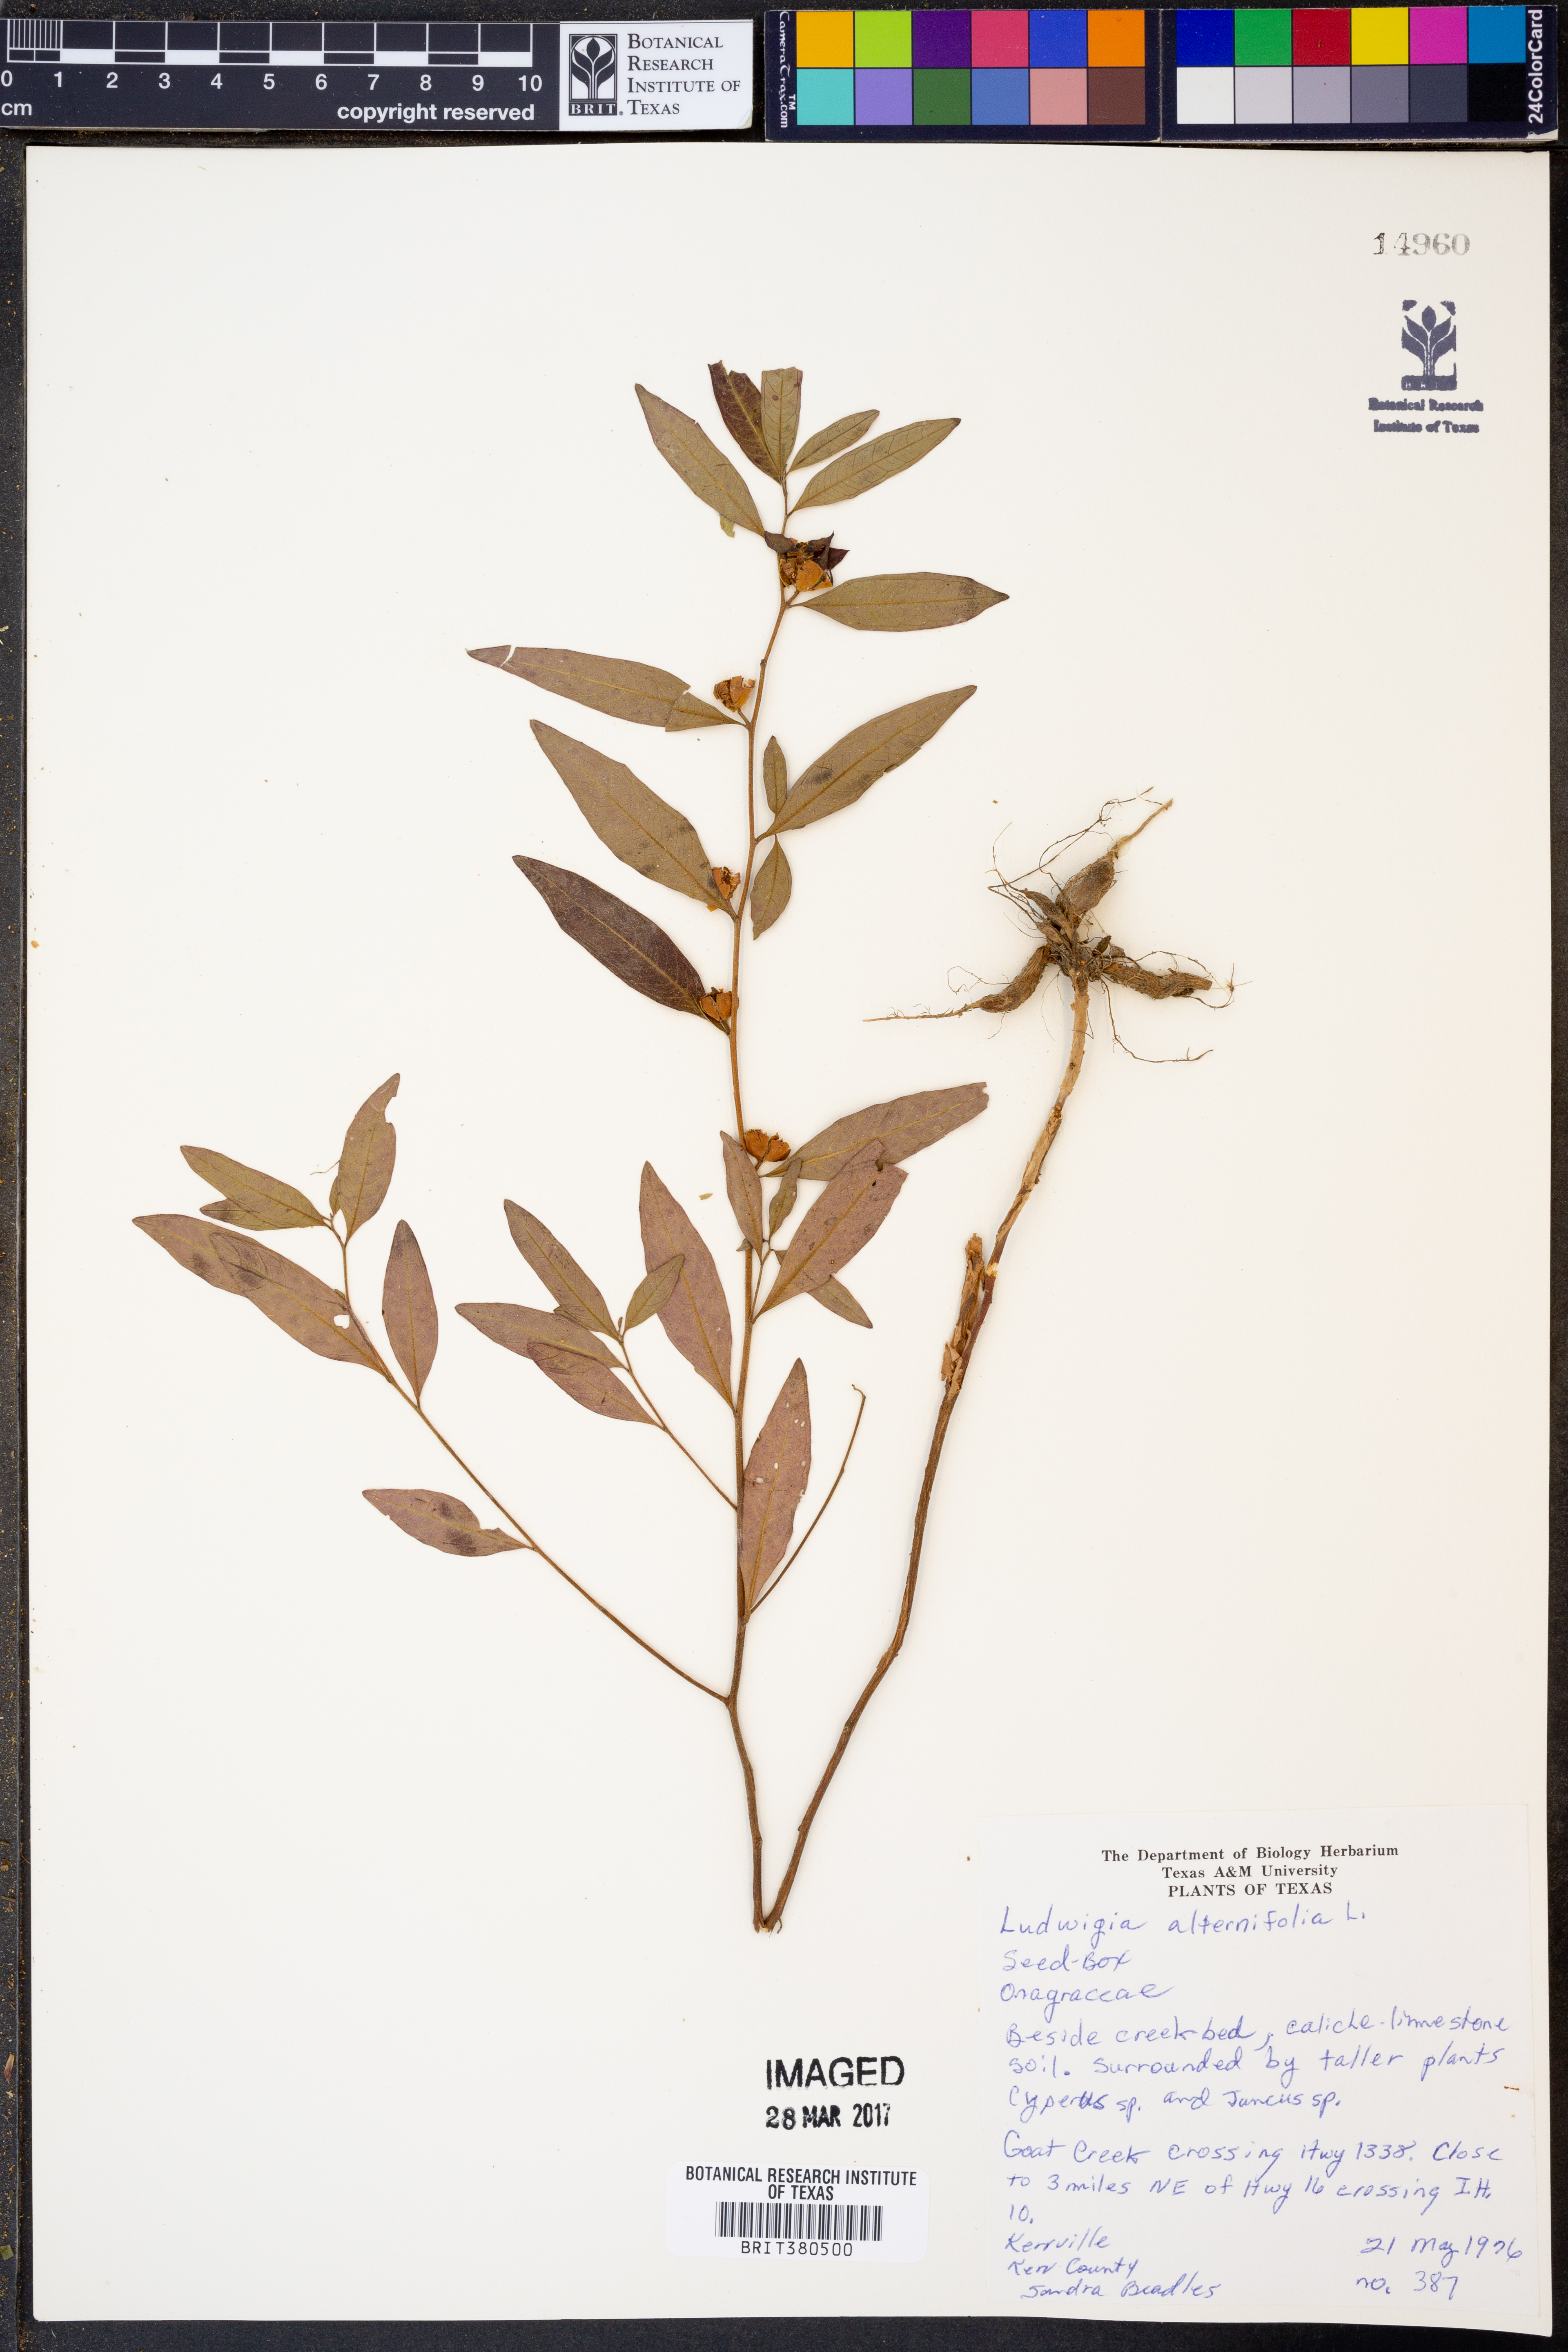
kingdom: Plantae
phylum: Tracheophyta
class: Magnoliopsida
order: Myrtales
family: Onagraceae
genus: Ludwigia
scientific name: Ludwigia alternifolia
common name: Rattlebox
